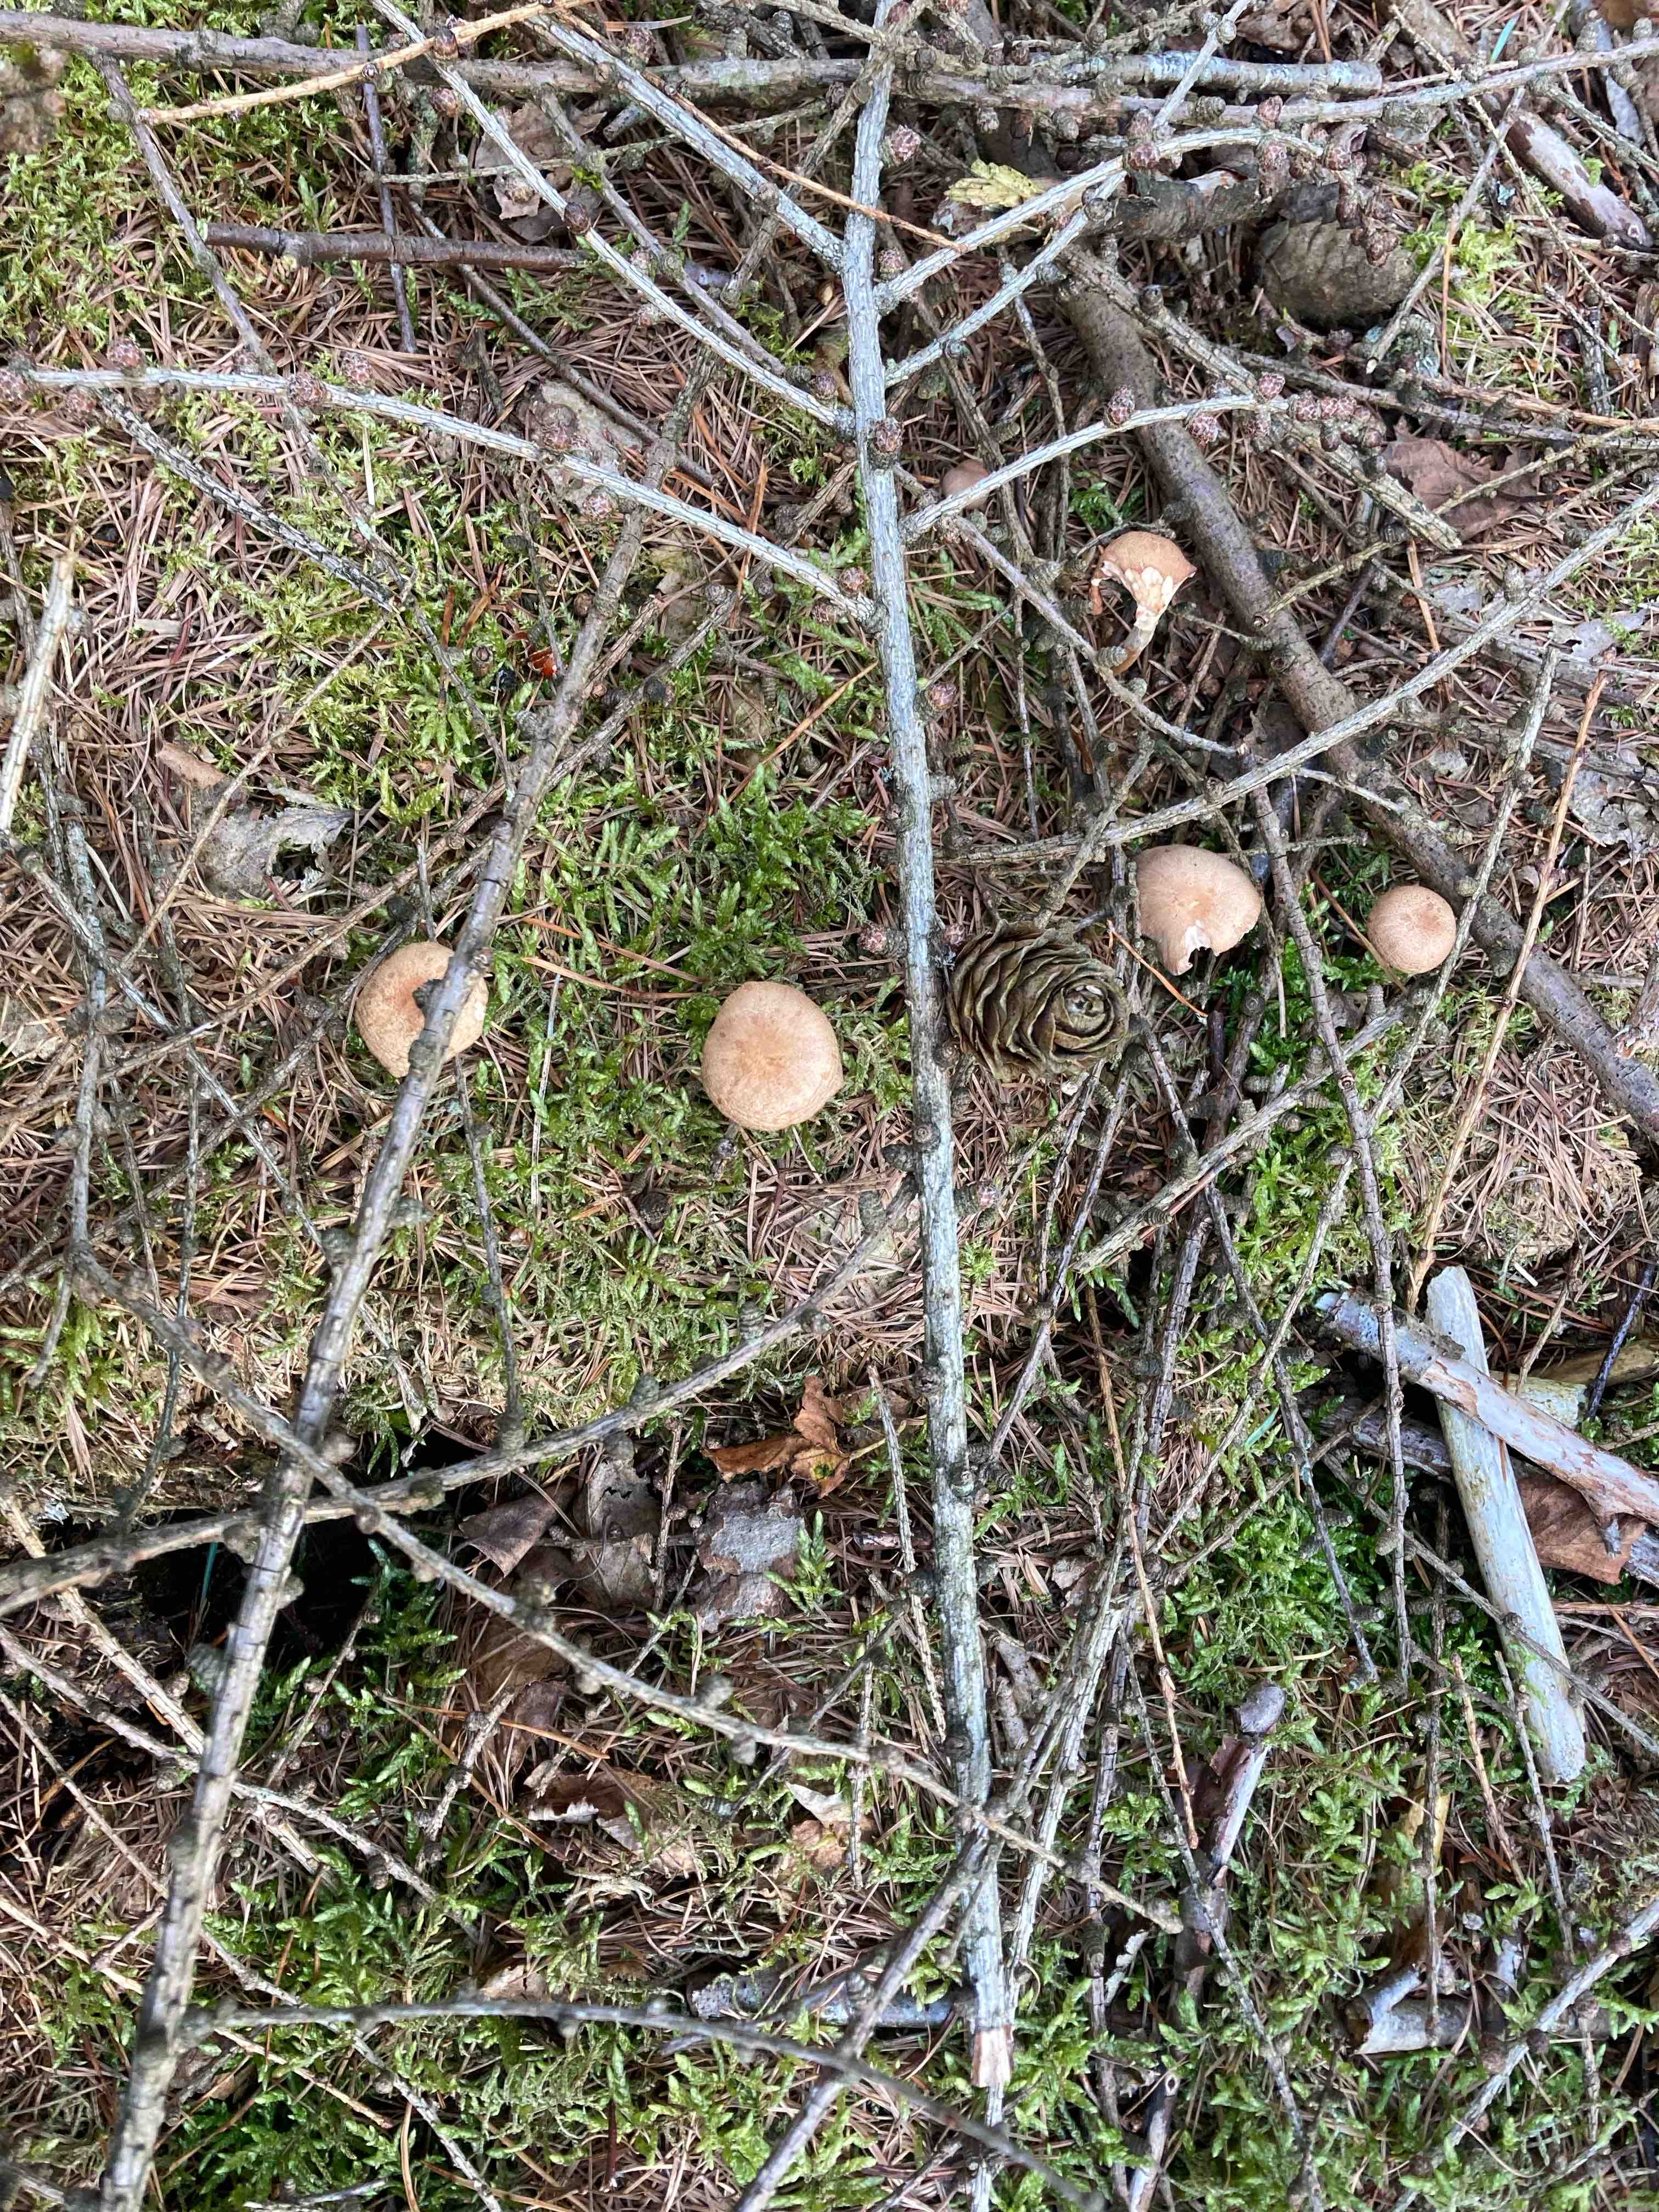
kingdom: Fungi
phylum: Basidiomycota
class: Agaricomycetes
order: Agaricales
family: Omphalotaceae
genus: Collybiopsis
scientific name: Collybiopsis peronata
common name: bestøvlet fladhat
